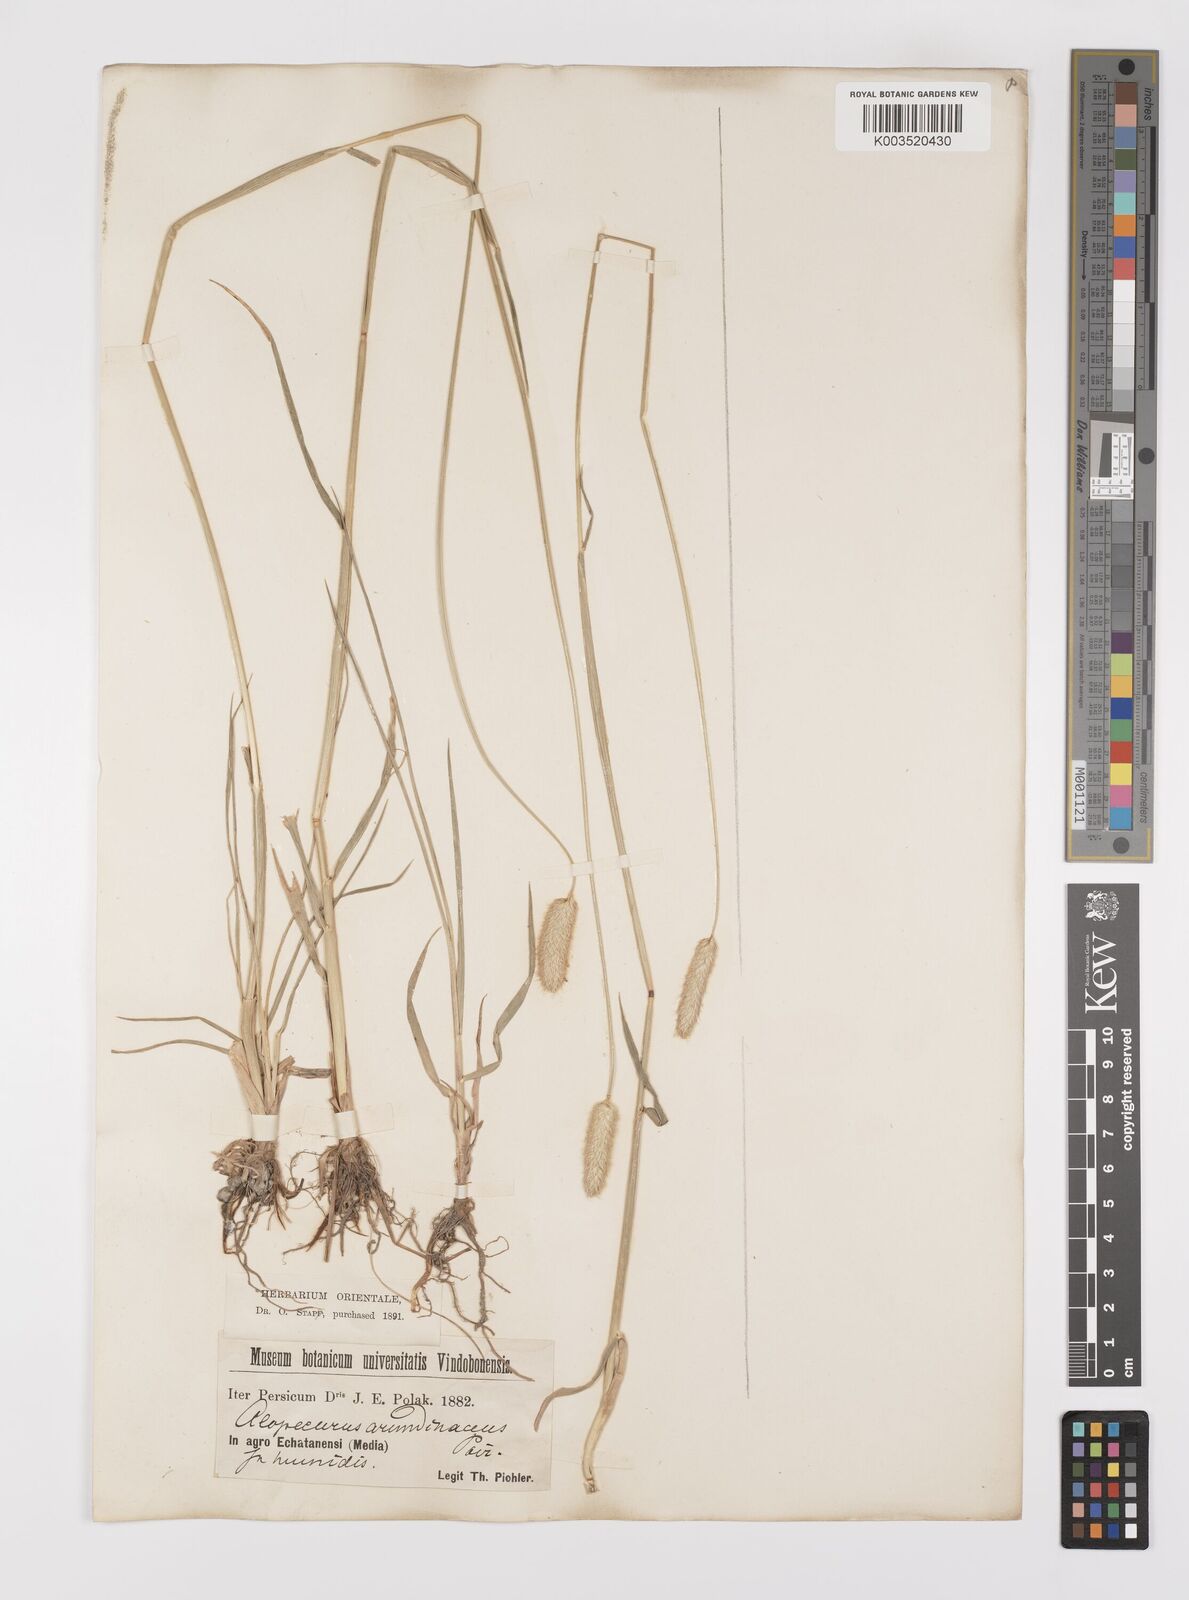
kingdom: Plantae
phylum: Tracheophyta
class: Liliopsida
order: Poales
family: Poaceae
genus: Alopecurus
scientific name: Alopecurus arundinaceus
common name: Creeping meadow foxtail
